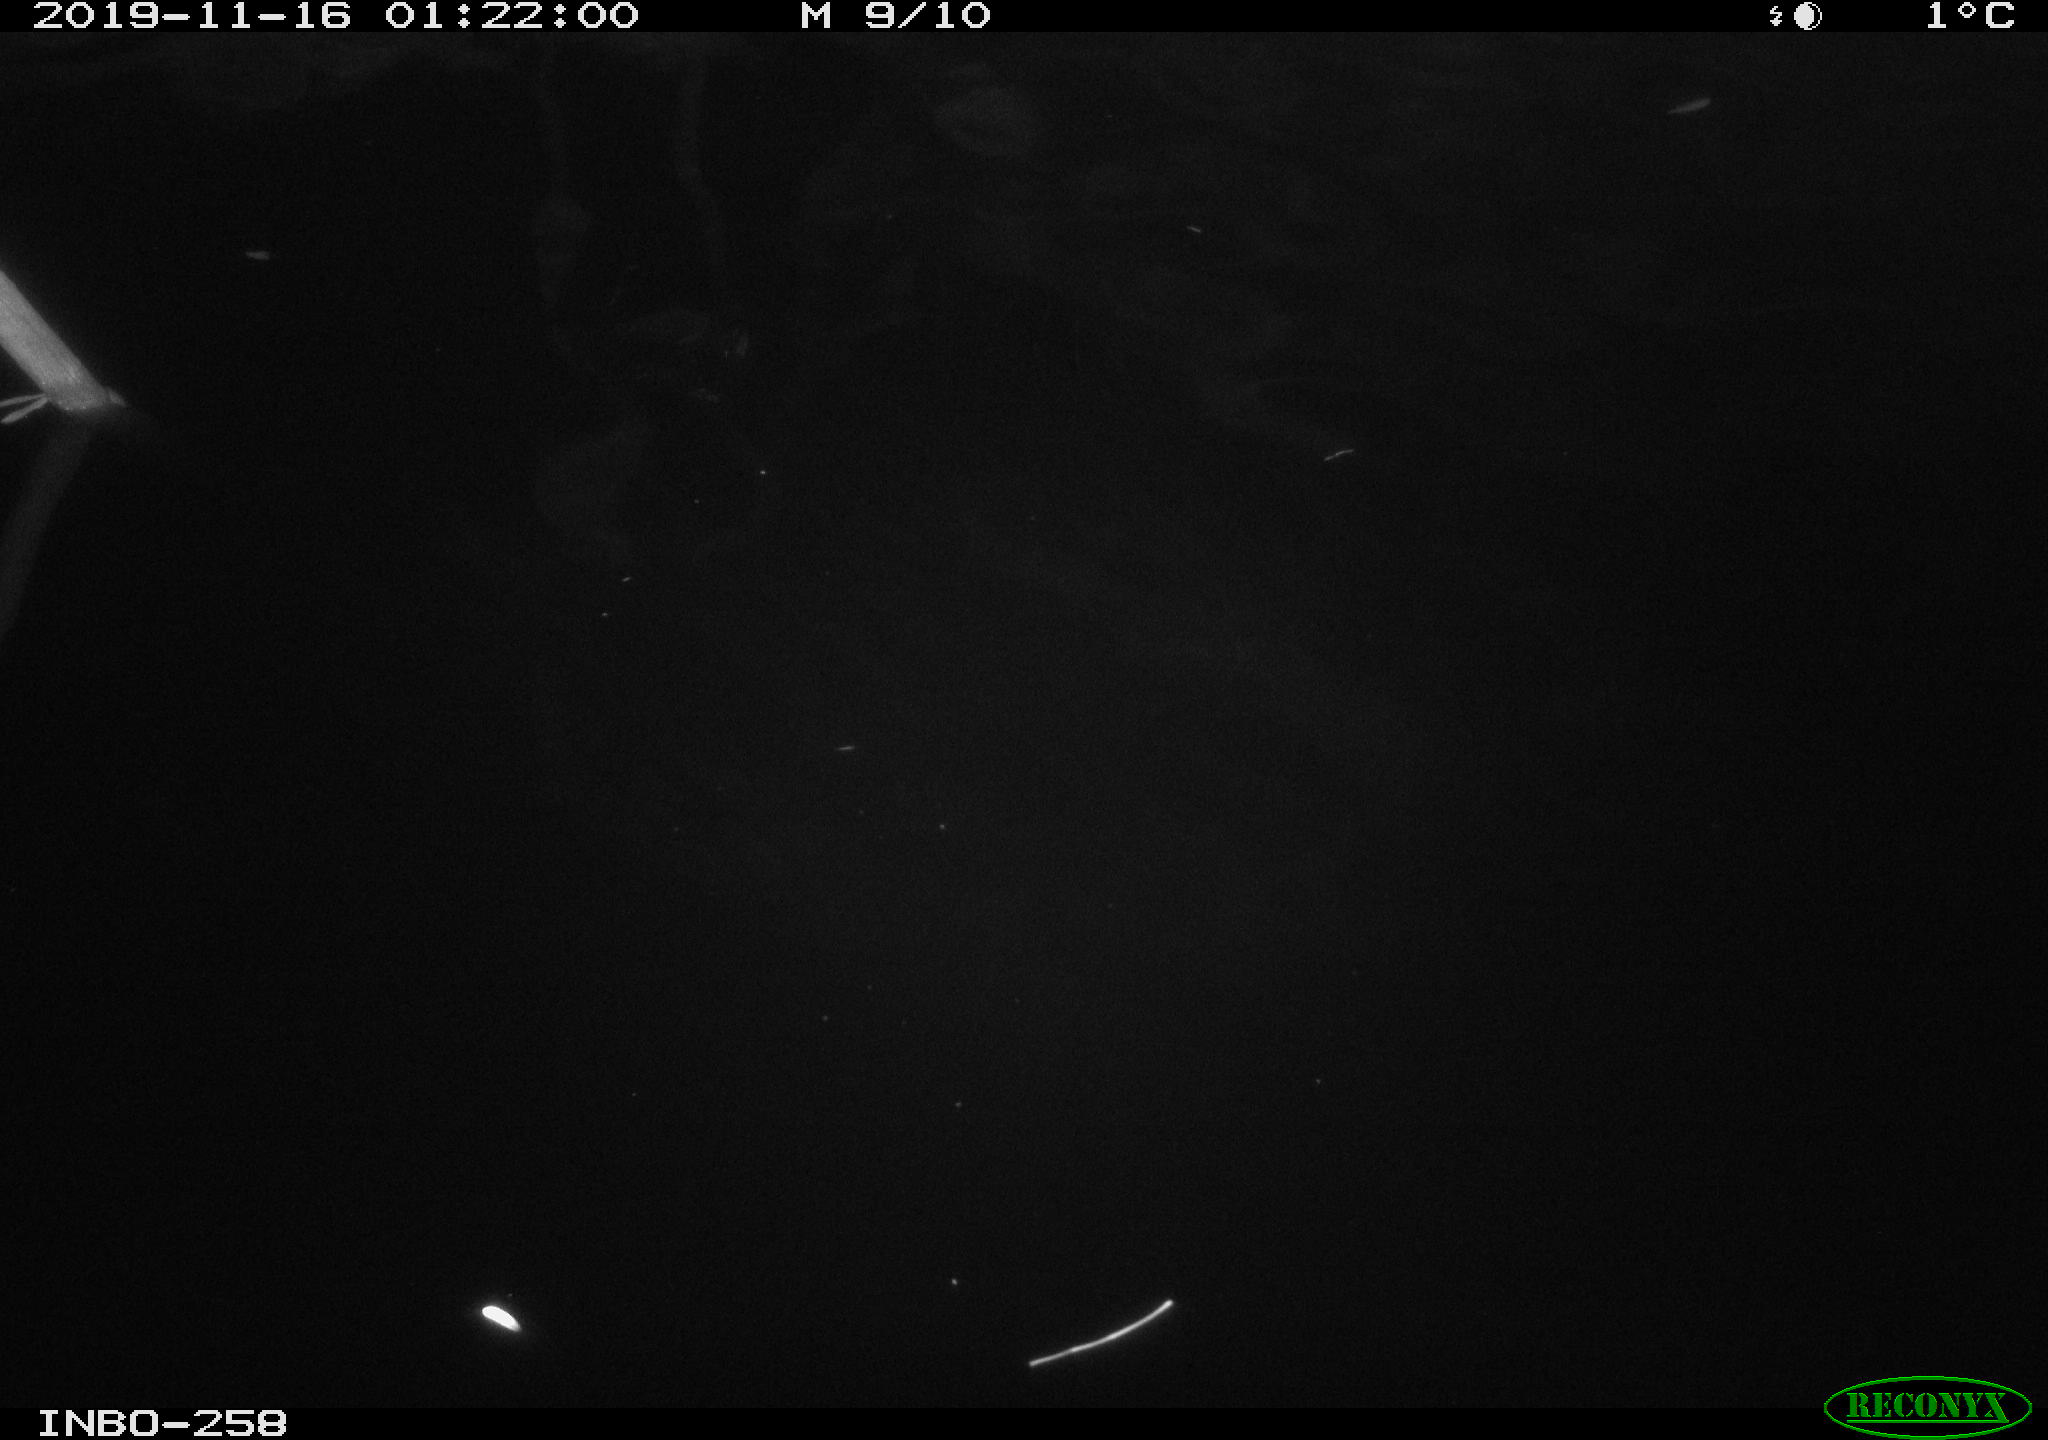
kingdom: Animalia
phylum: Chordata
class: Aves
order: Anseriformes
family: Anatidae
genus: Anas
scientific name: Anas platyrhynchos
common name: Mallard
